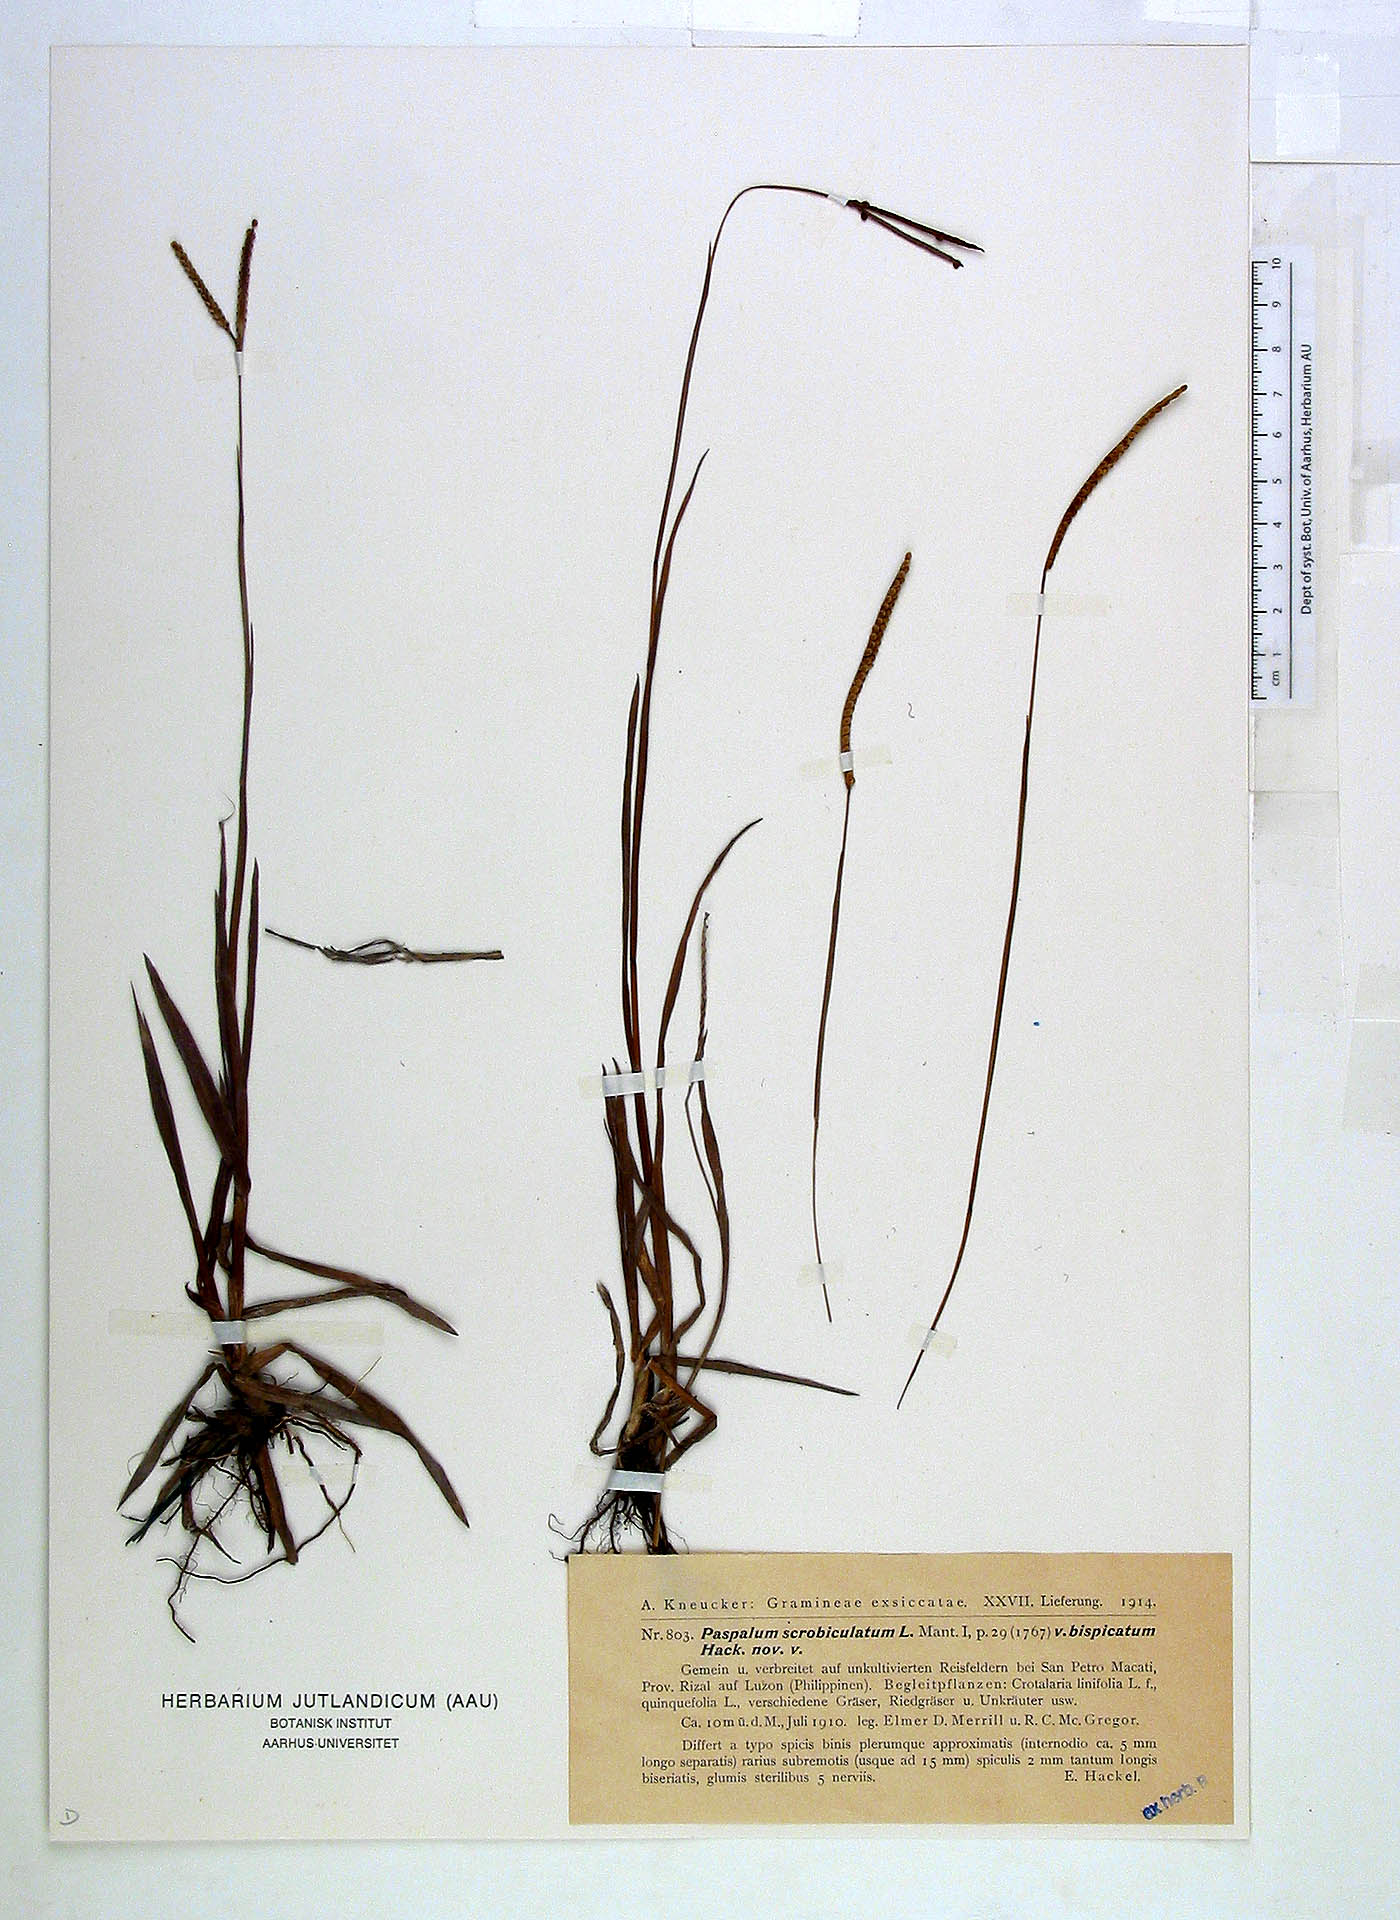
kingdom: Plantae
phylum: Tracheophyta
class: Liliopsida
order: Poales
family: Poaceae
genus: Paspalum
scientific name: Paspalum scrobiculatum
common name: Kodo millet
